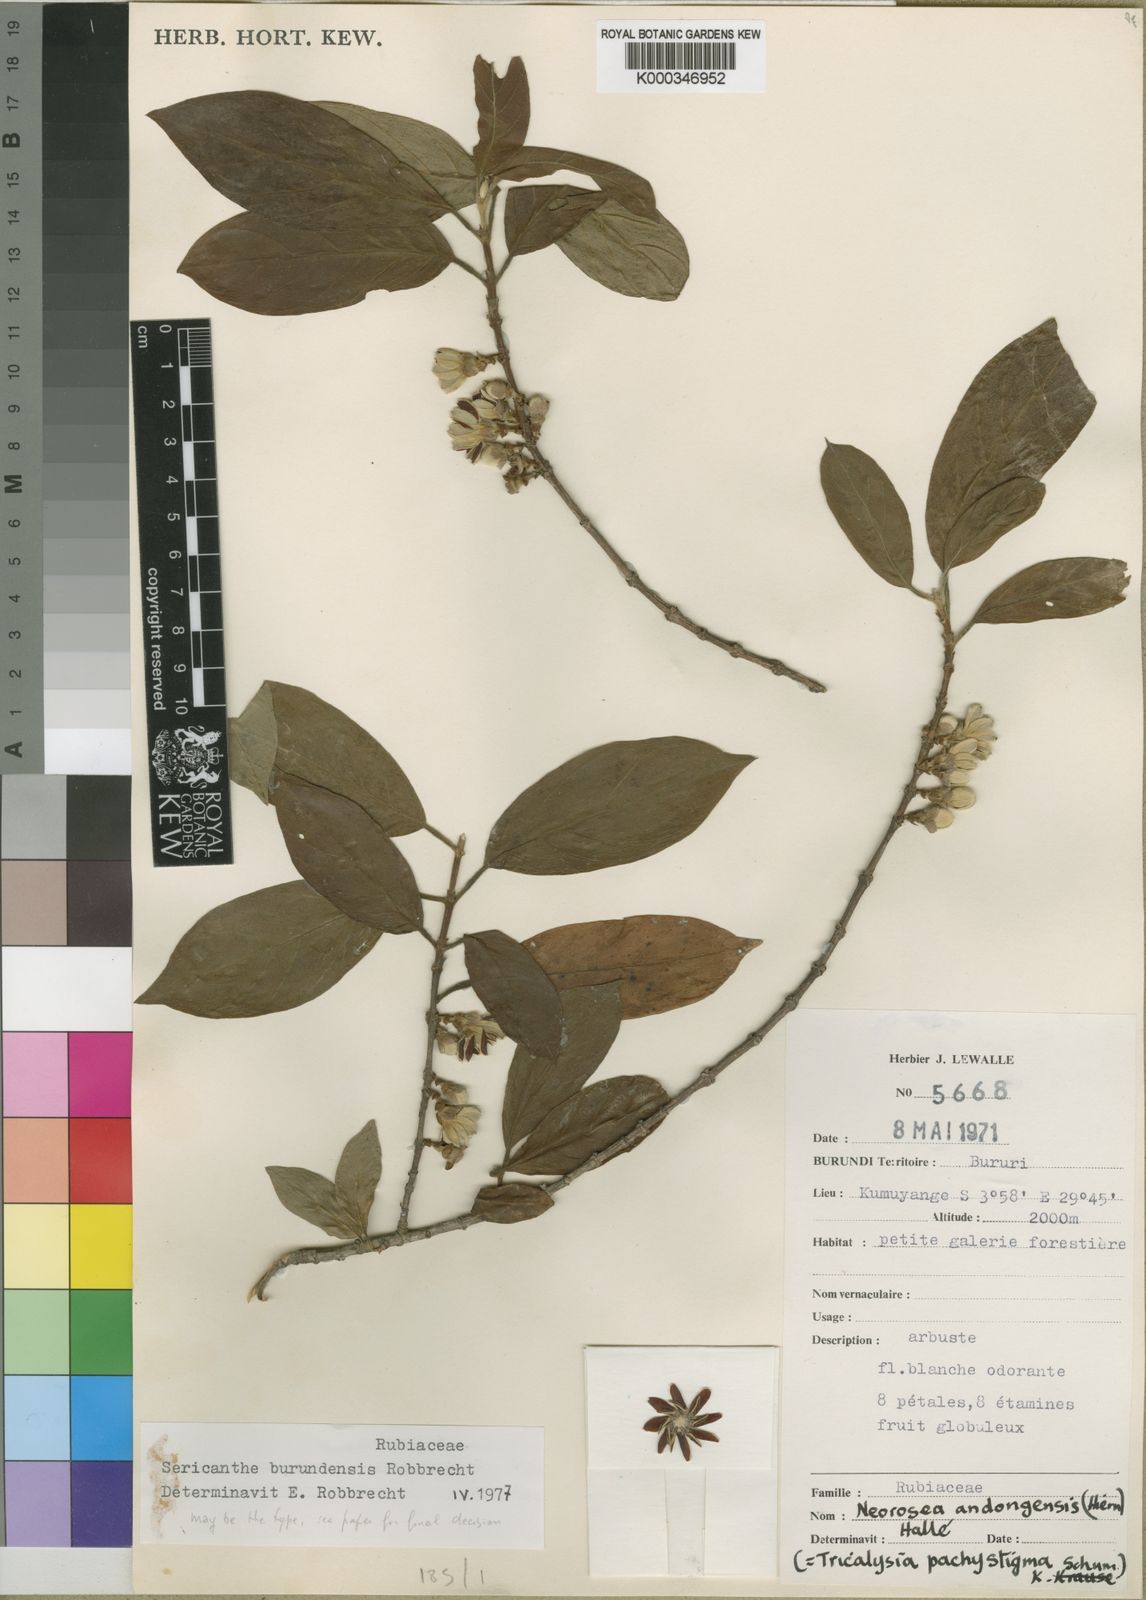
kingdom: Plantae
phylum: Tracheophyta
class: Magnoliopsida
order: Gentianales
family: Rubiaceae
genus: Sericanthe
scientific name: Sericanthe burundensis
